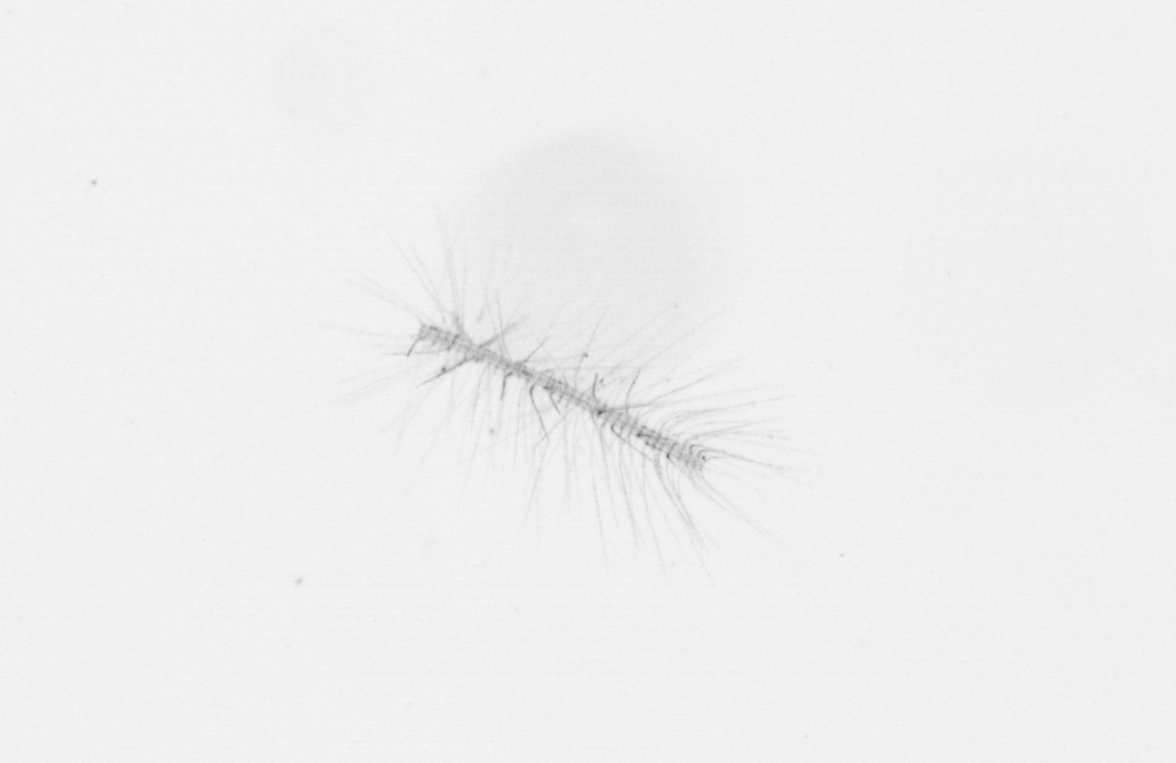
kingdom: Chromista
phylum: Ochrophyta
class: Bacillariophyceae
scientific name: Bacillariophyceae
